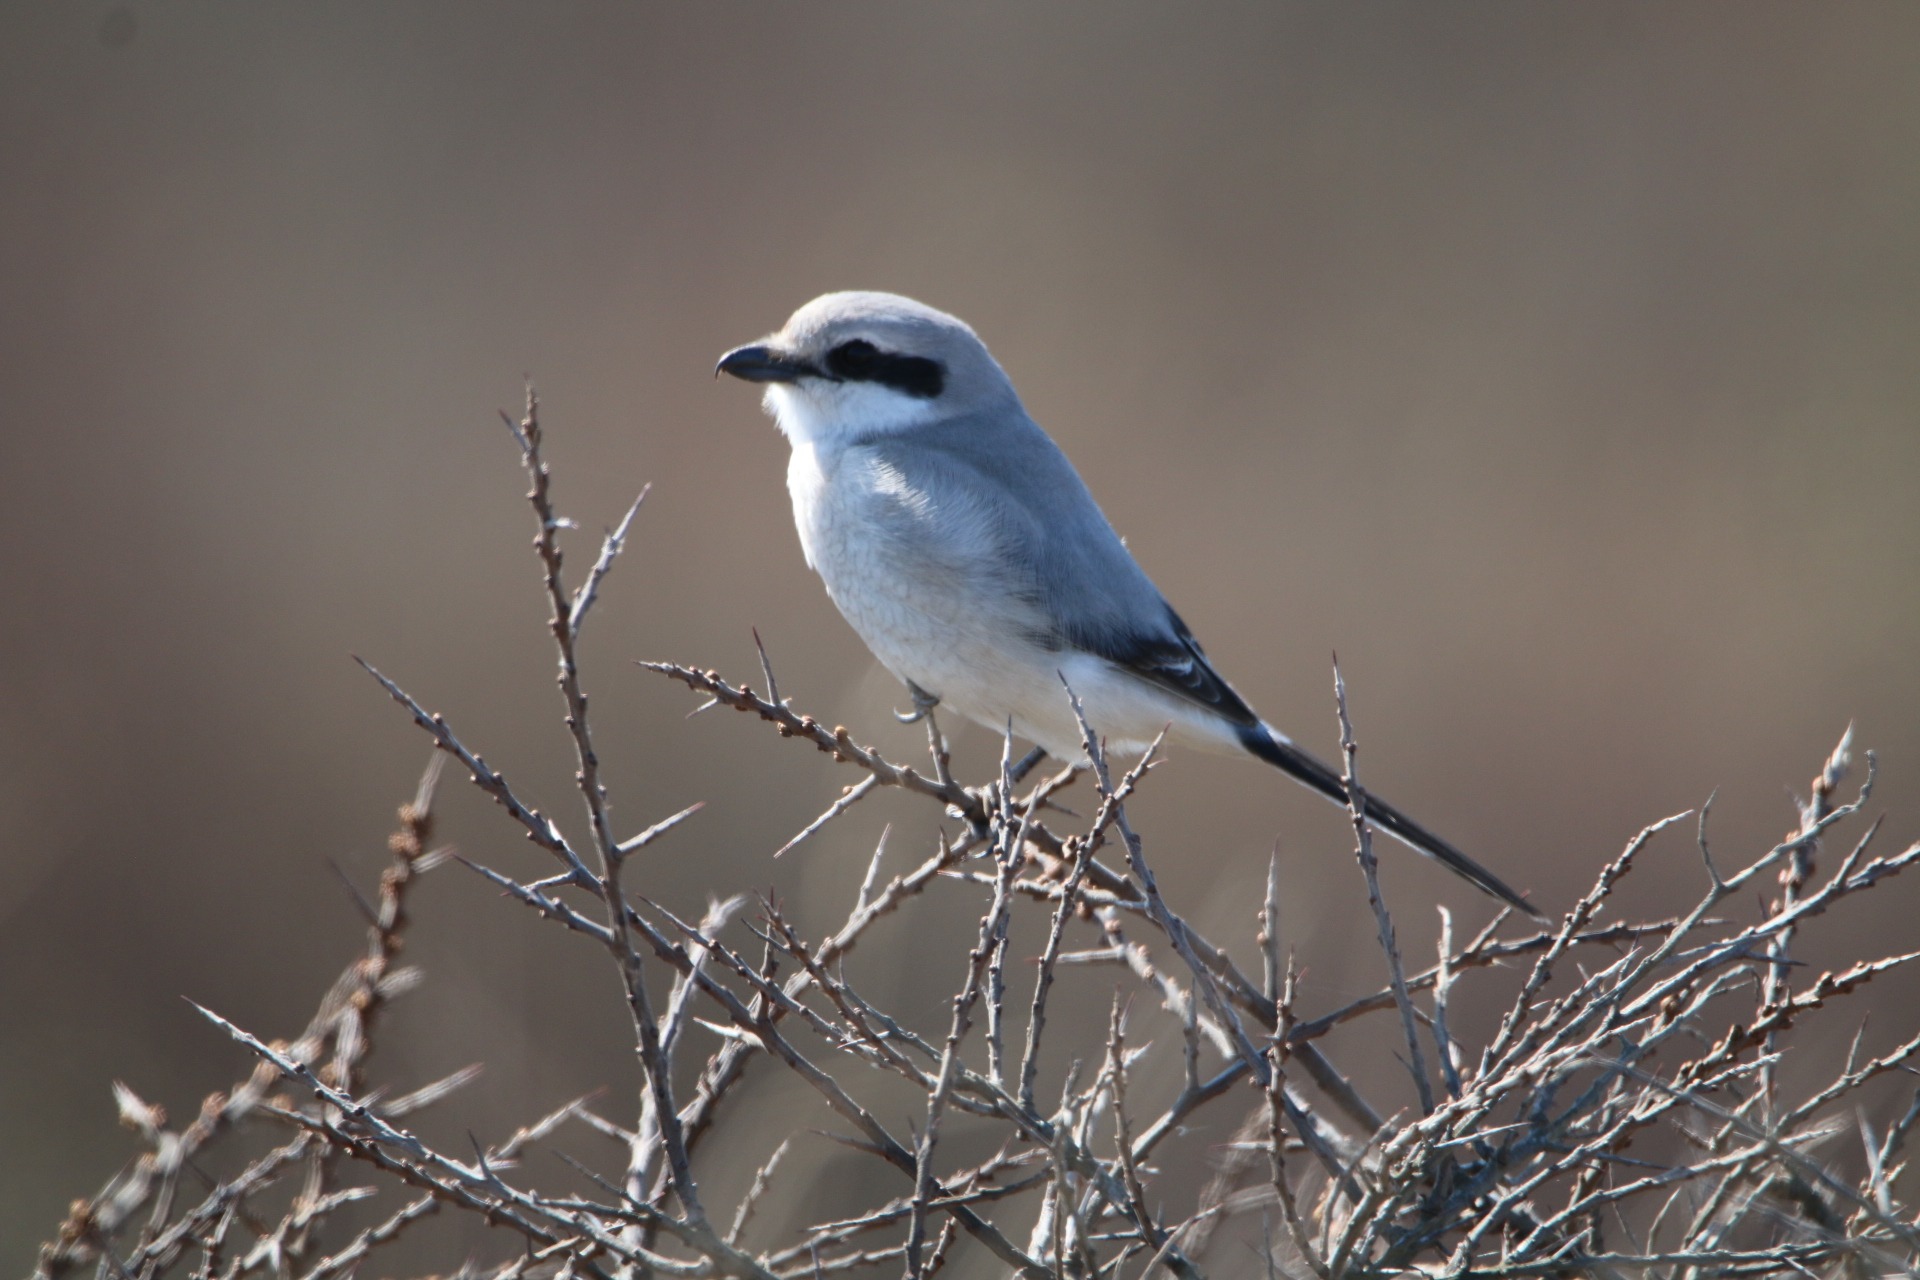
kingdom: Animalia
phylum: Chordata
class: Aves
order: Passeriformes
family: Laniidae
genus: Lanius
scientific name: Lanius excubitor
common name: Stor tornskade
